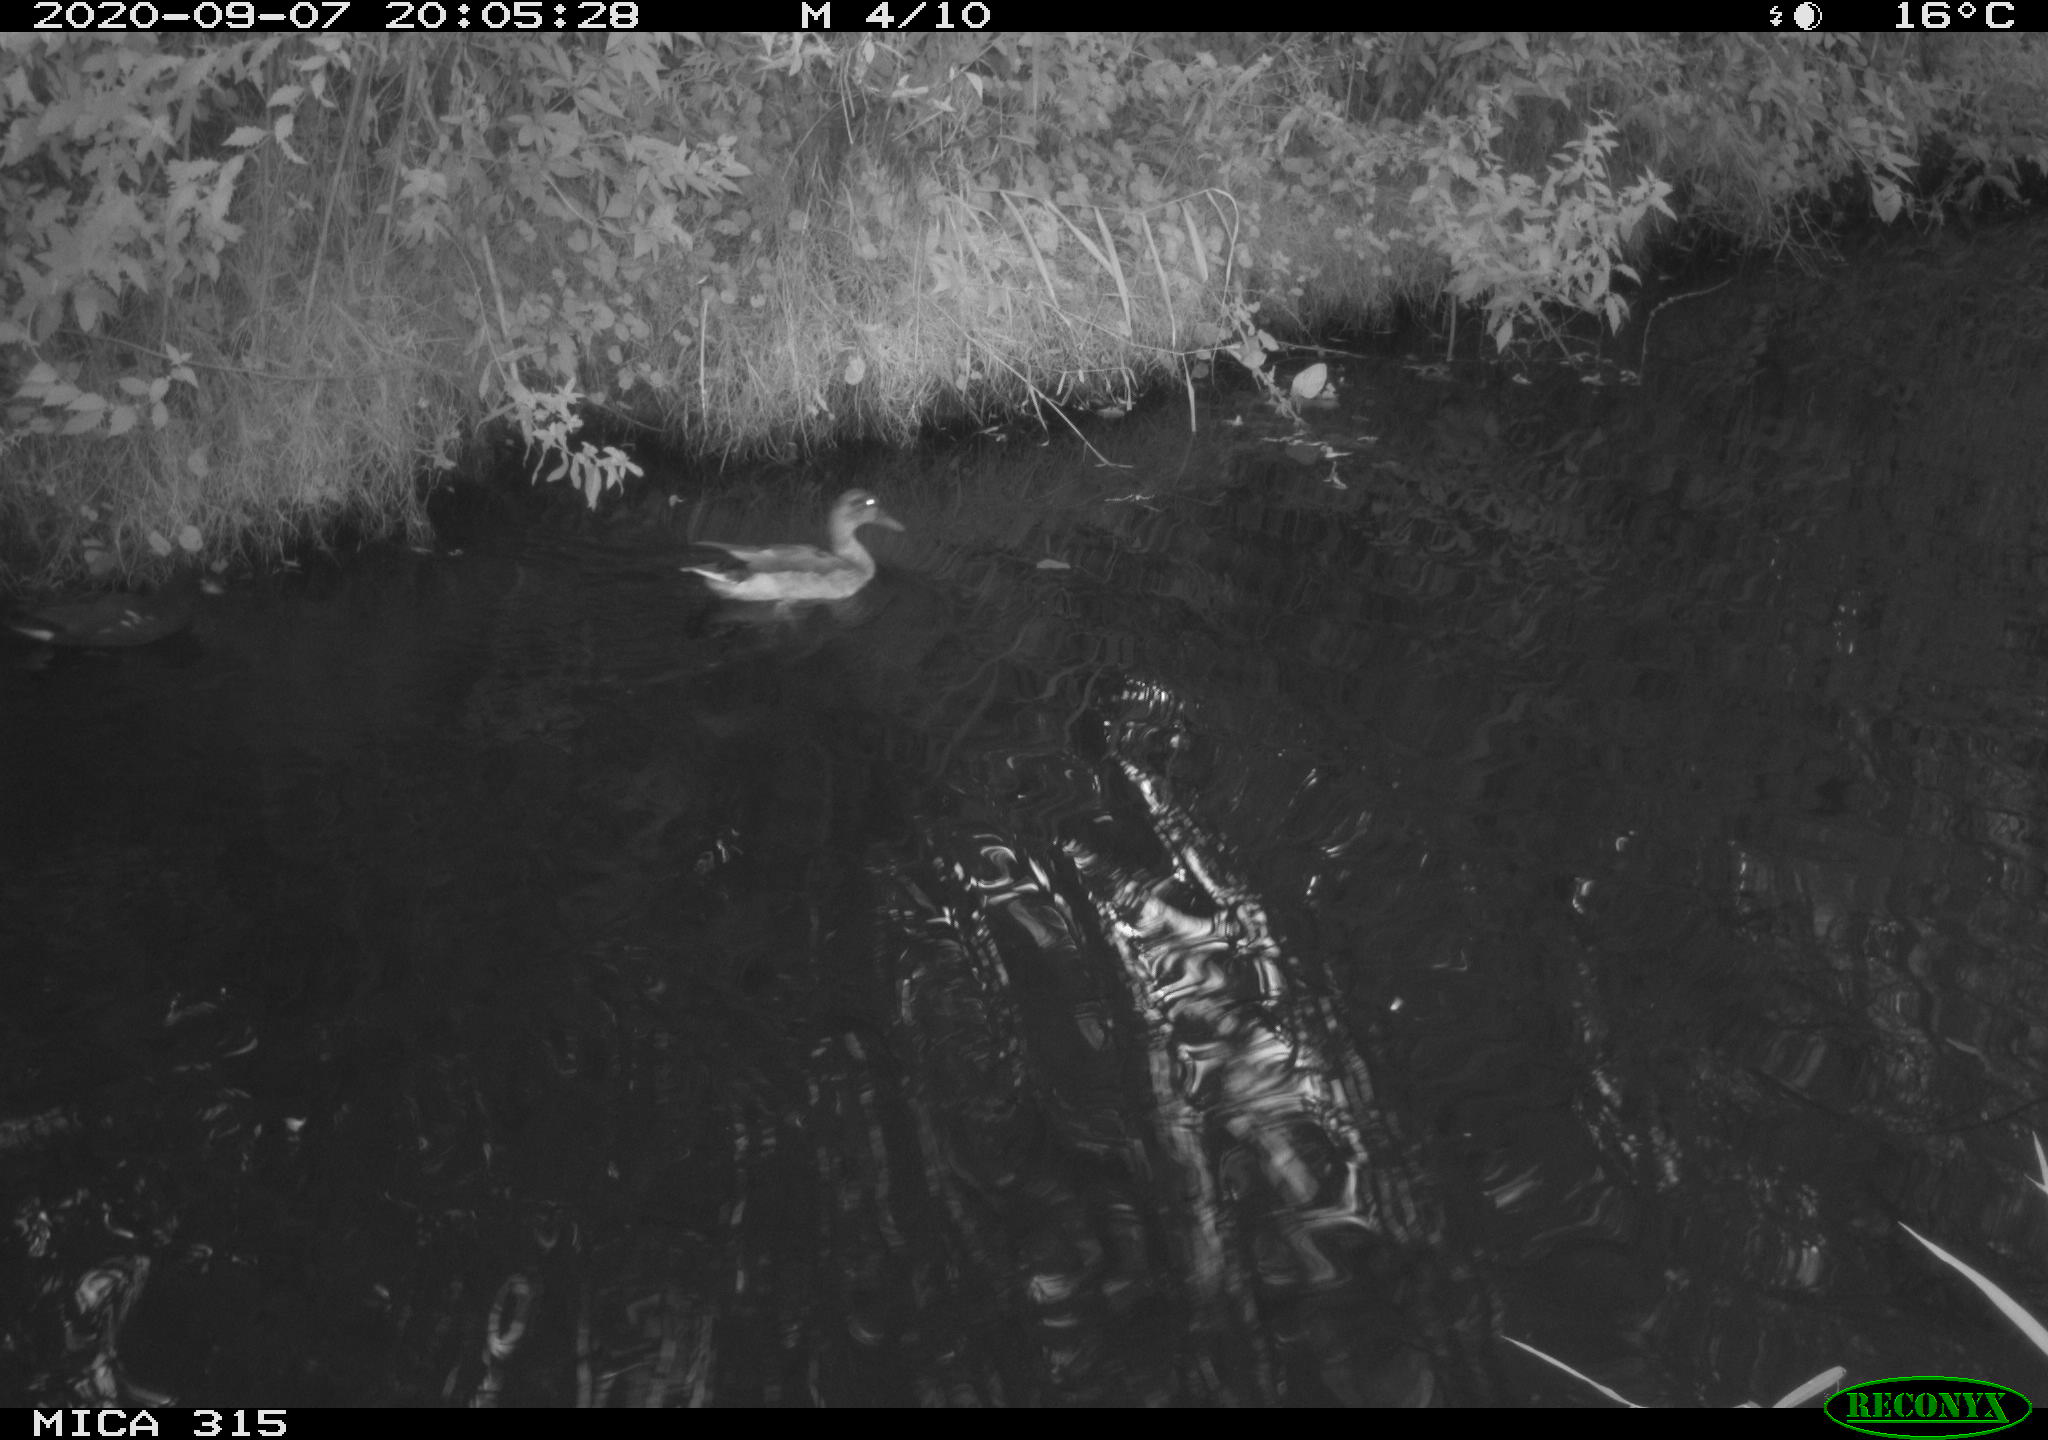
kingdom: Animalia
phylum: Chordata
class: Aves
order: Anseriformes
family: Anatidae
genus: Anas
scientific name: Anas platyrhynchos
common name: Mallard
